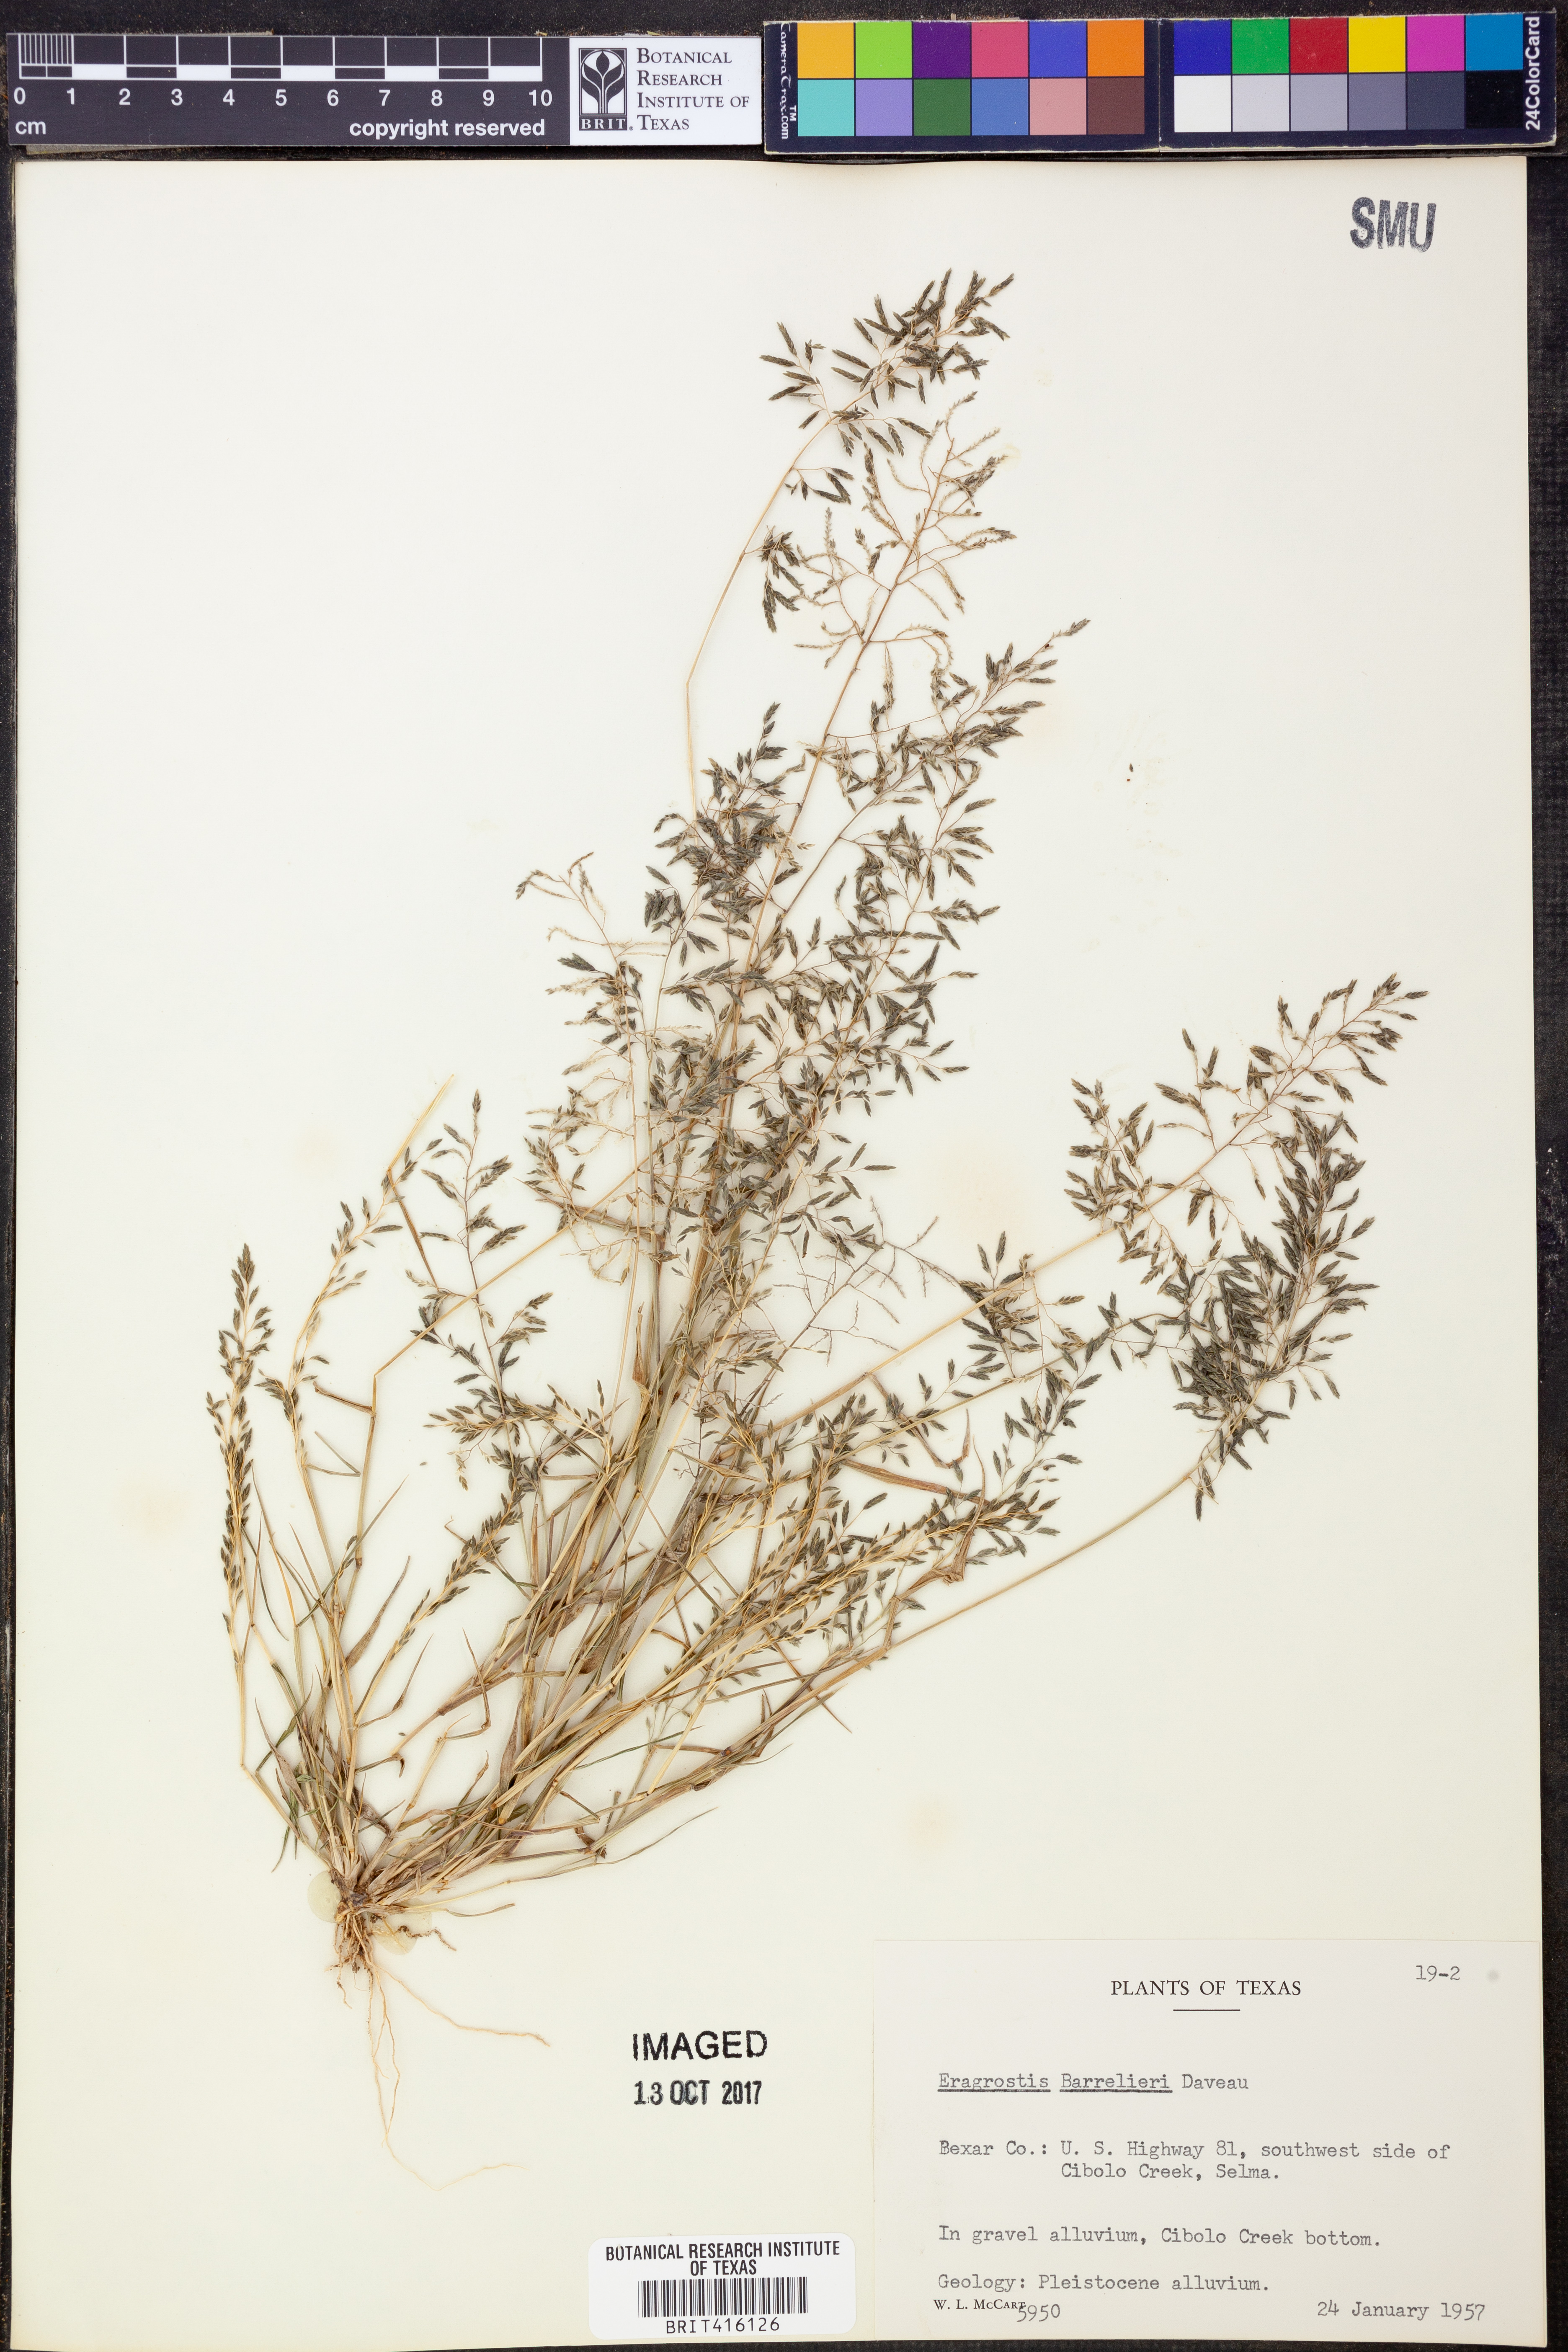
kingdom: Plantae
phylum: Tracheophyta
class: Liliopsida
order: Poales
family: Poaceae
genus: Eragrostis
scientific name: Eragrostis barrelieri
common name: Mediterranean lovegrass
